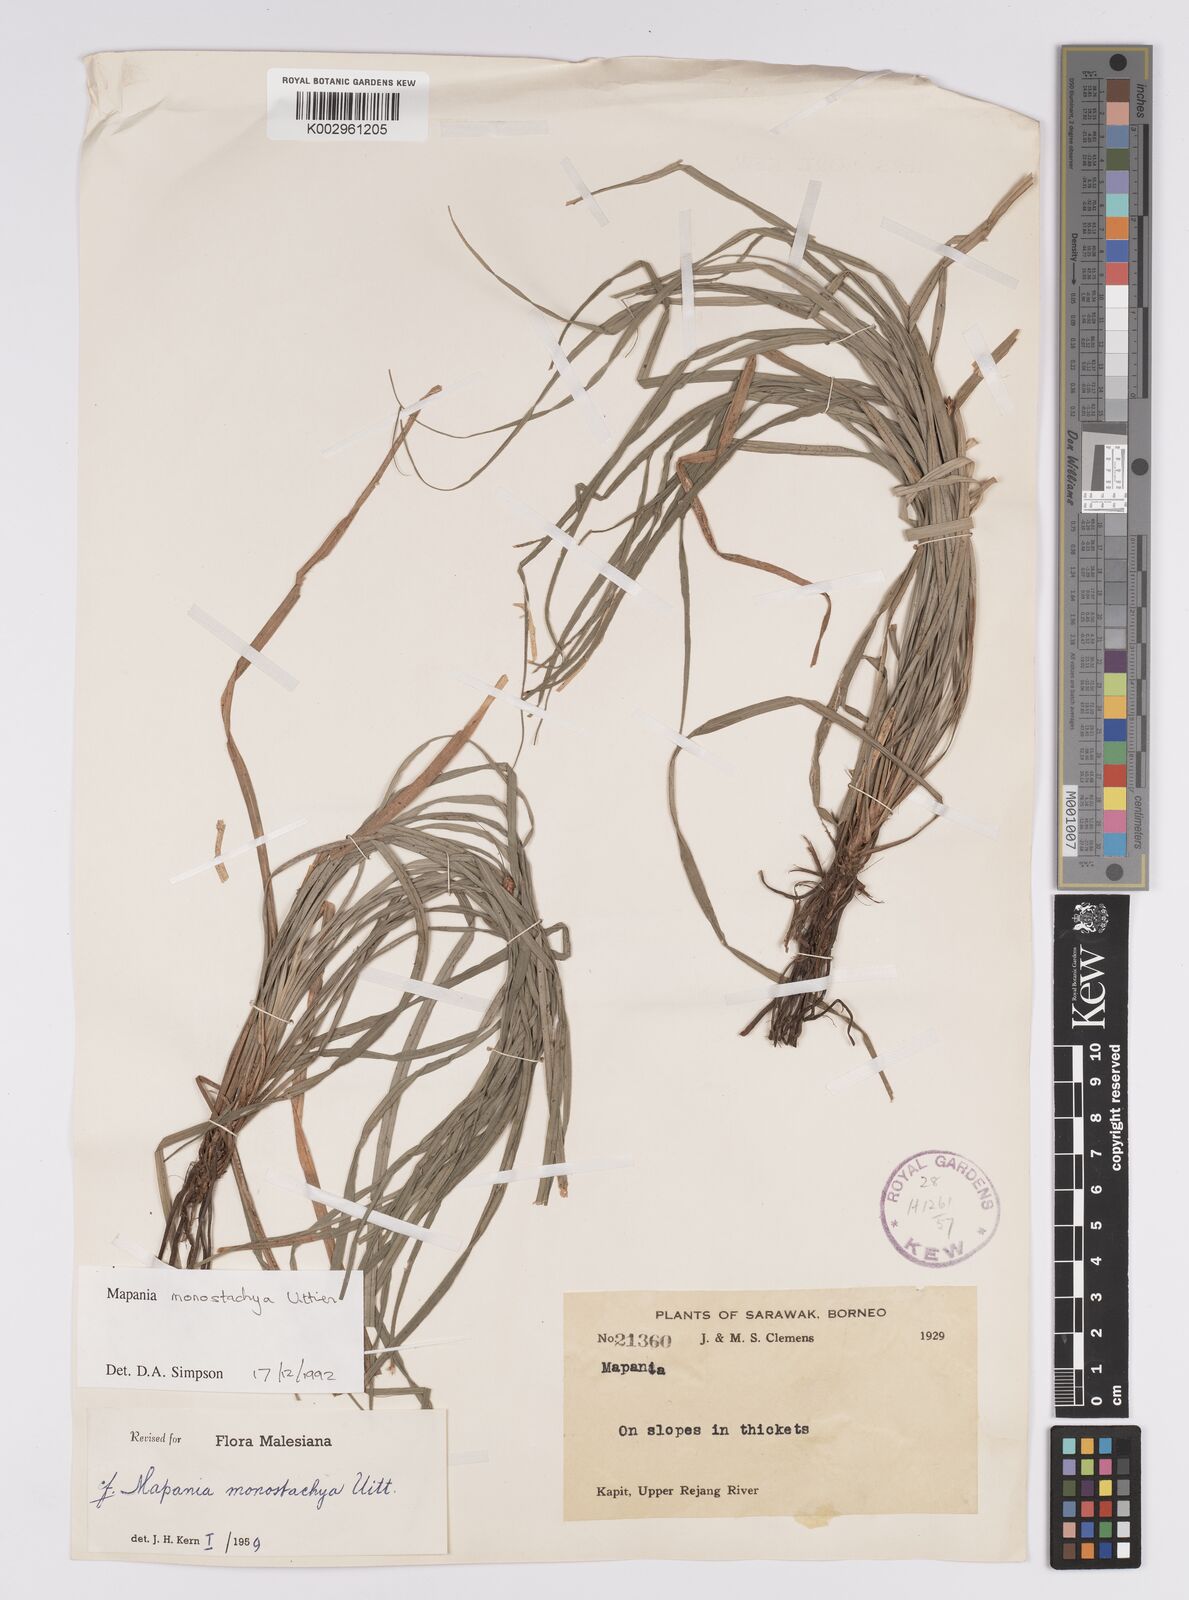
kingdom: Plantae
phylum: Tracheophyta
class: Liliopsida
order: Poales
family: Cyperaceae
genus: Mapania
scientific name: Mapania monostachya
